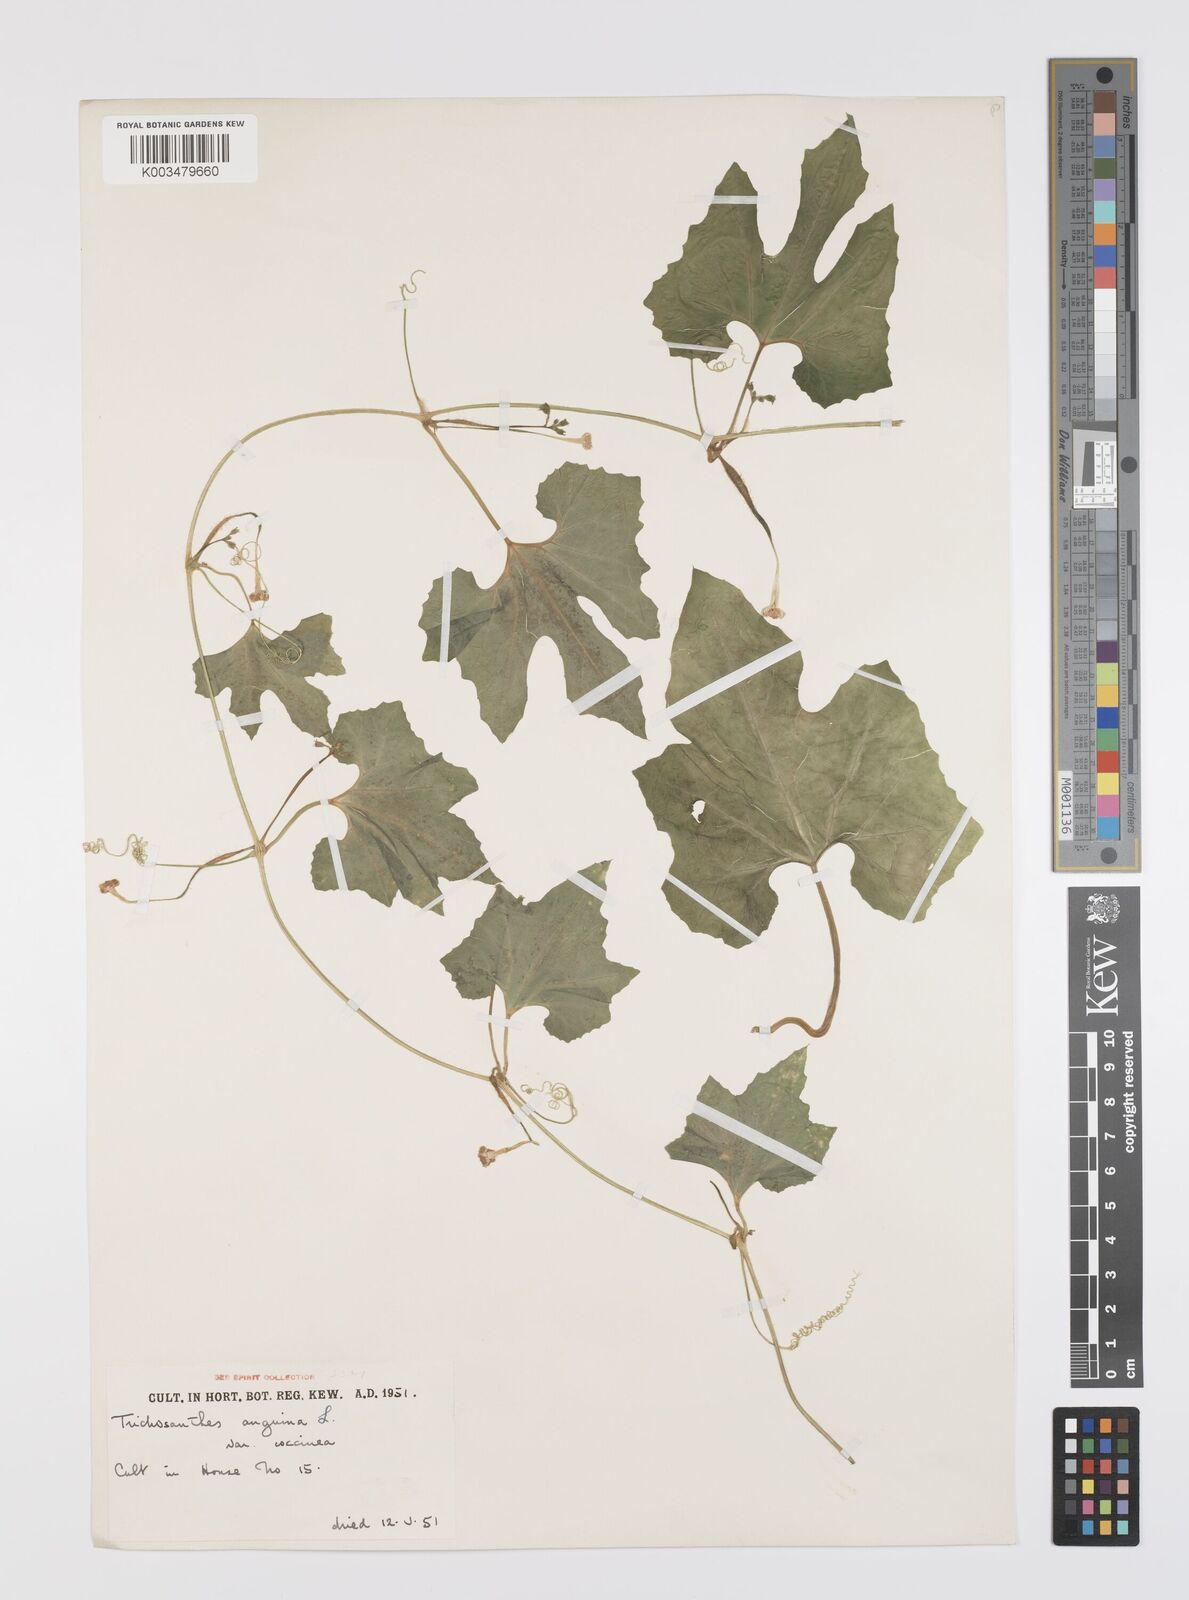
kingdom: Plantae
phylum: Tracheophyta
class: Magnoliopsida
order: Cucurbitales
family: Cucurbitaceae
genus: Trichosanthes
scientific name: Trichosanthes cucumerina
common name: Snakegourd
